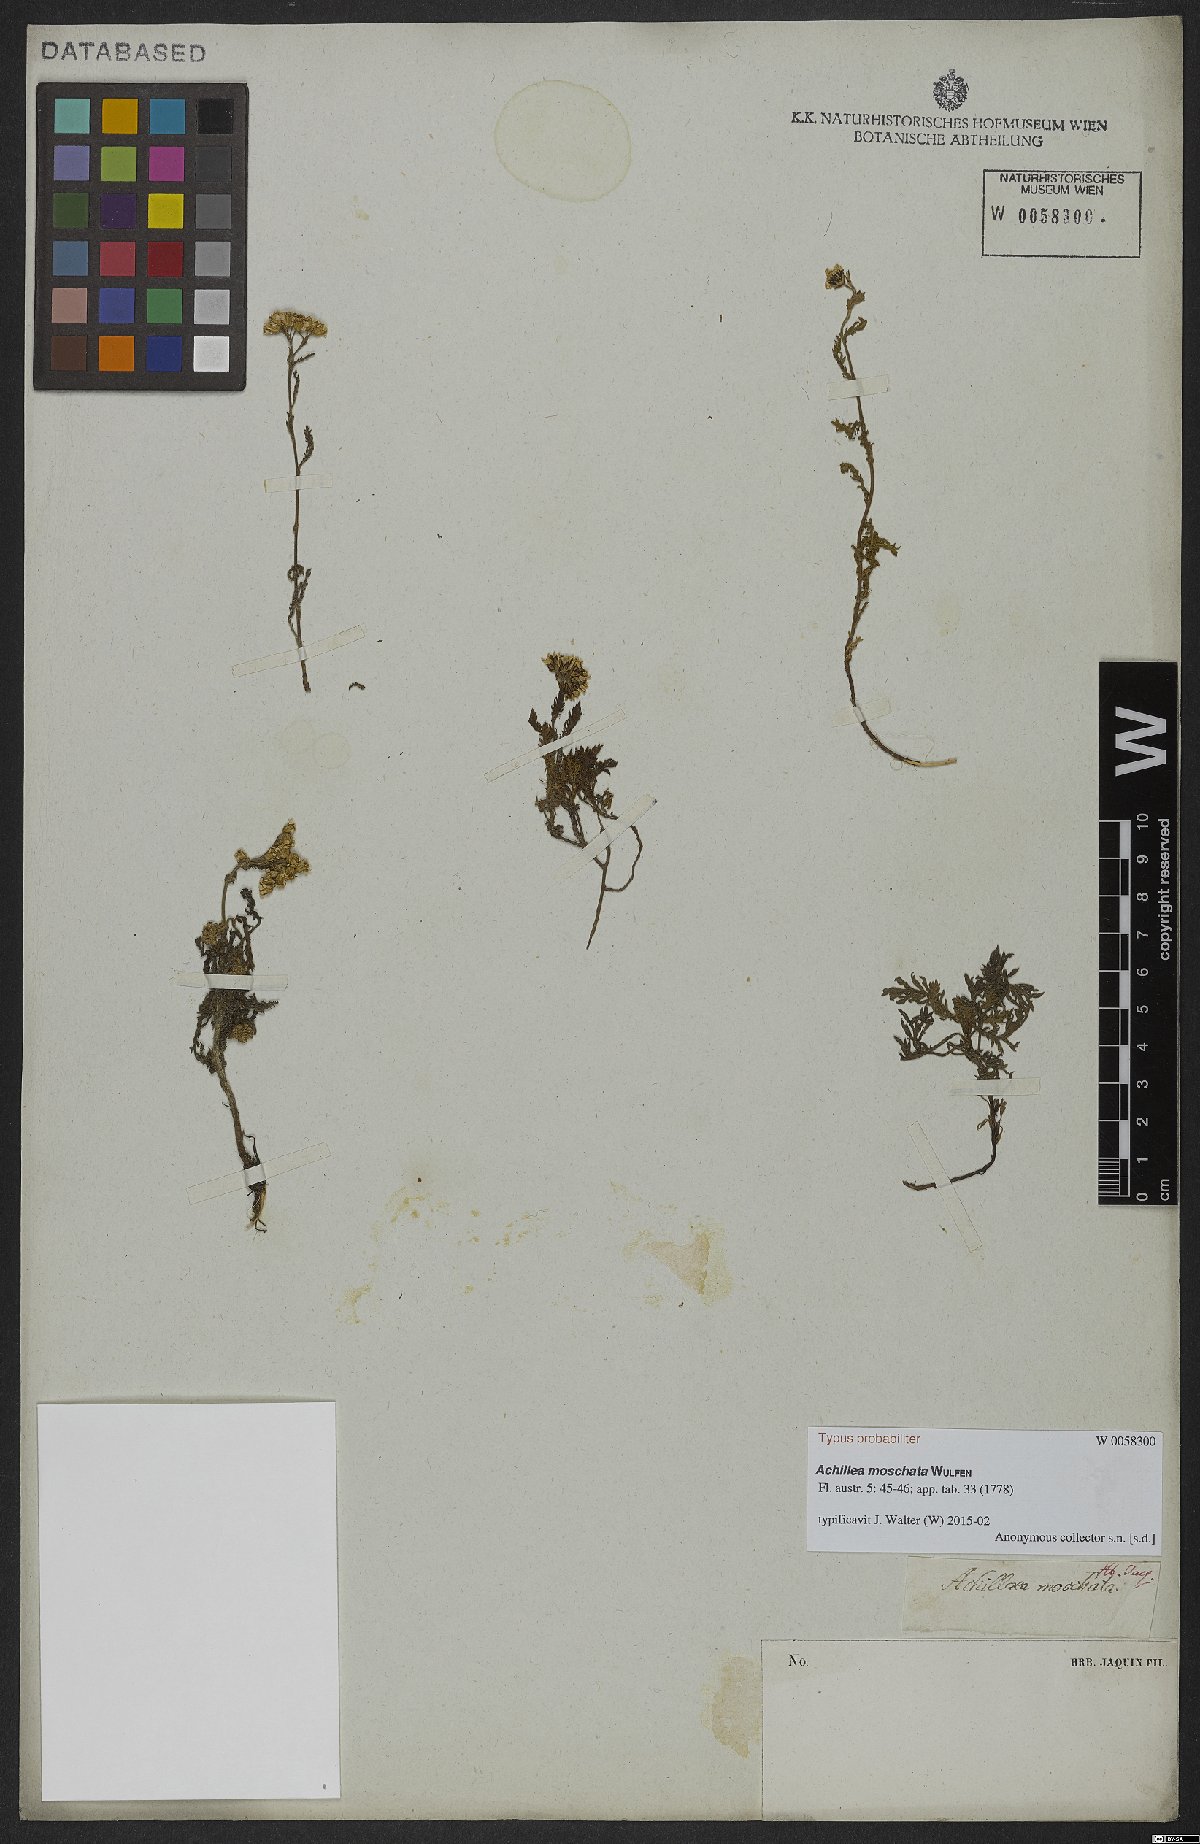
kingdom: Plantae
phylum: Tracheophyta
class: Magnoliopsida
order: Asterales
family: Asteraceae
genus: Achillea
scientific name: Achillea erba-rotta
